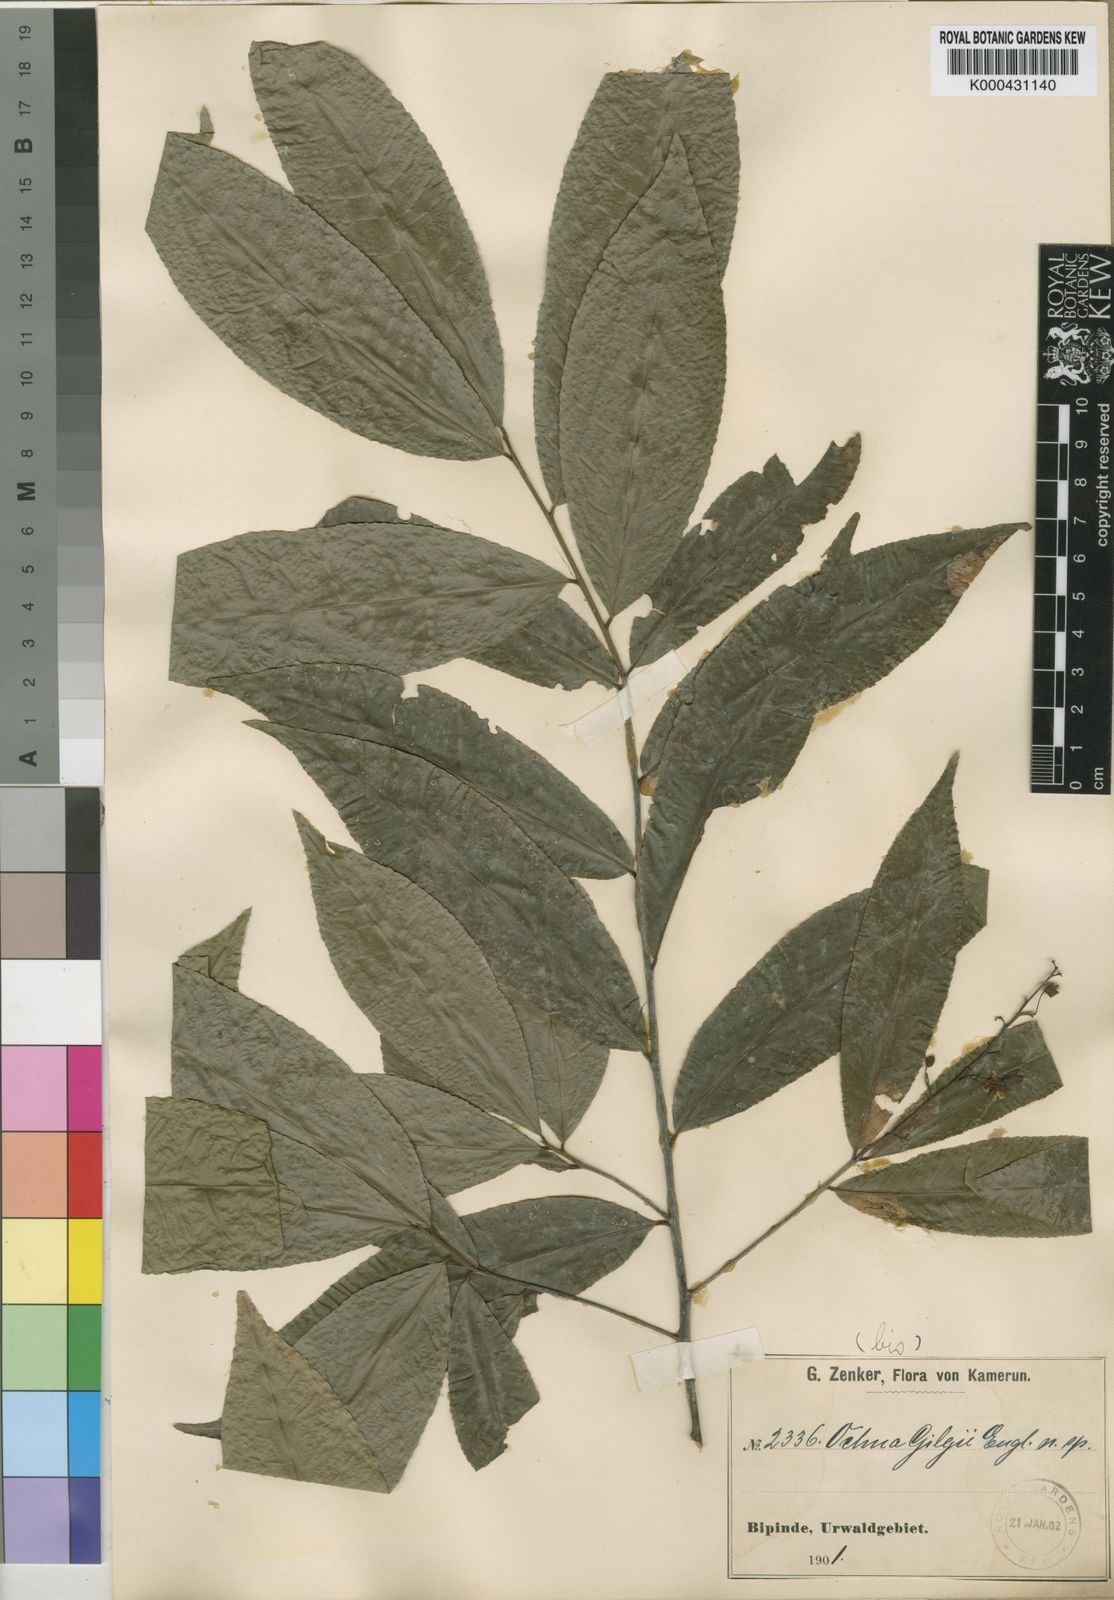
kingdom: Plantae
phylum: Tracheophyta
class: Magnoliopsida
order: Malpighiales
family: Ochnaceae
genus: Ochna
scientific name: Ochna
